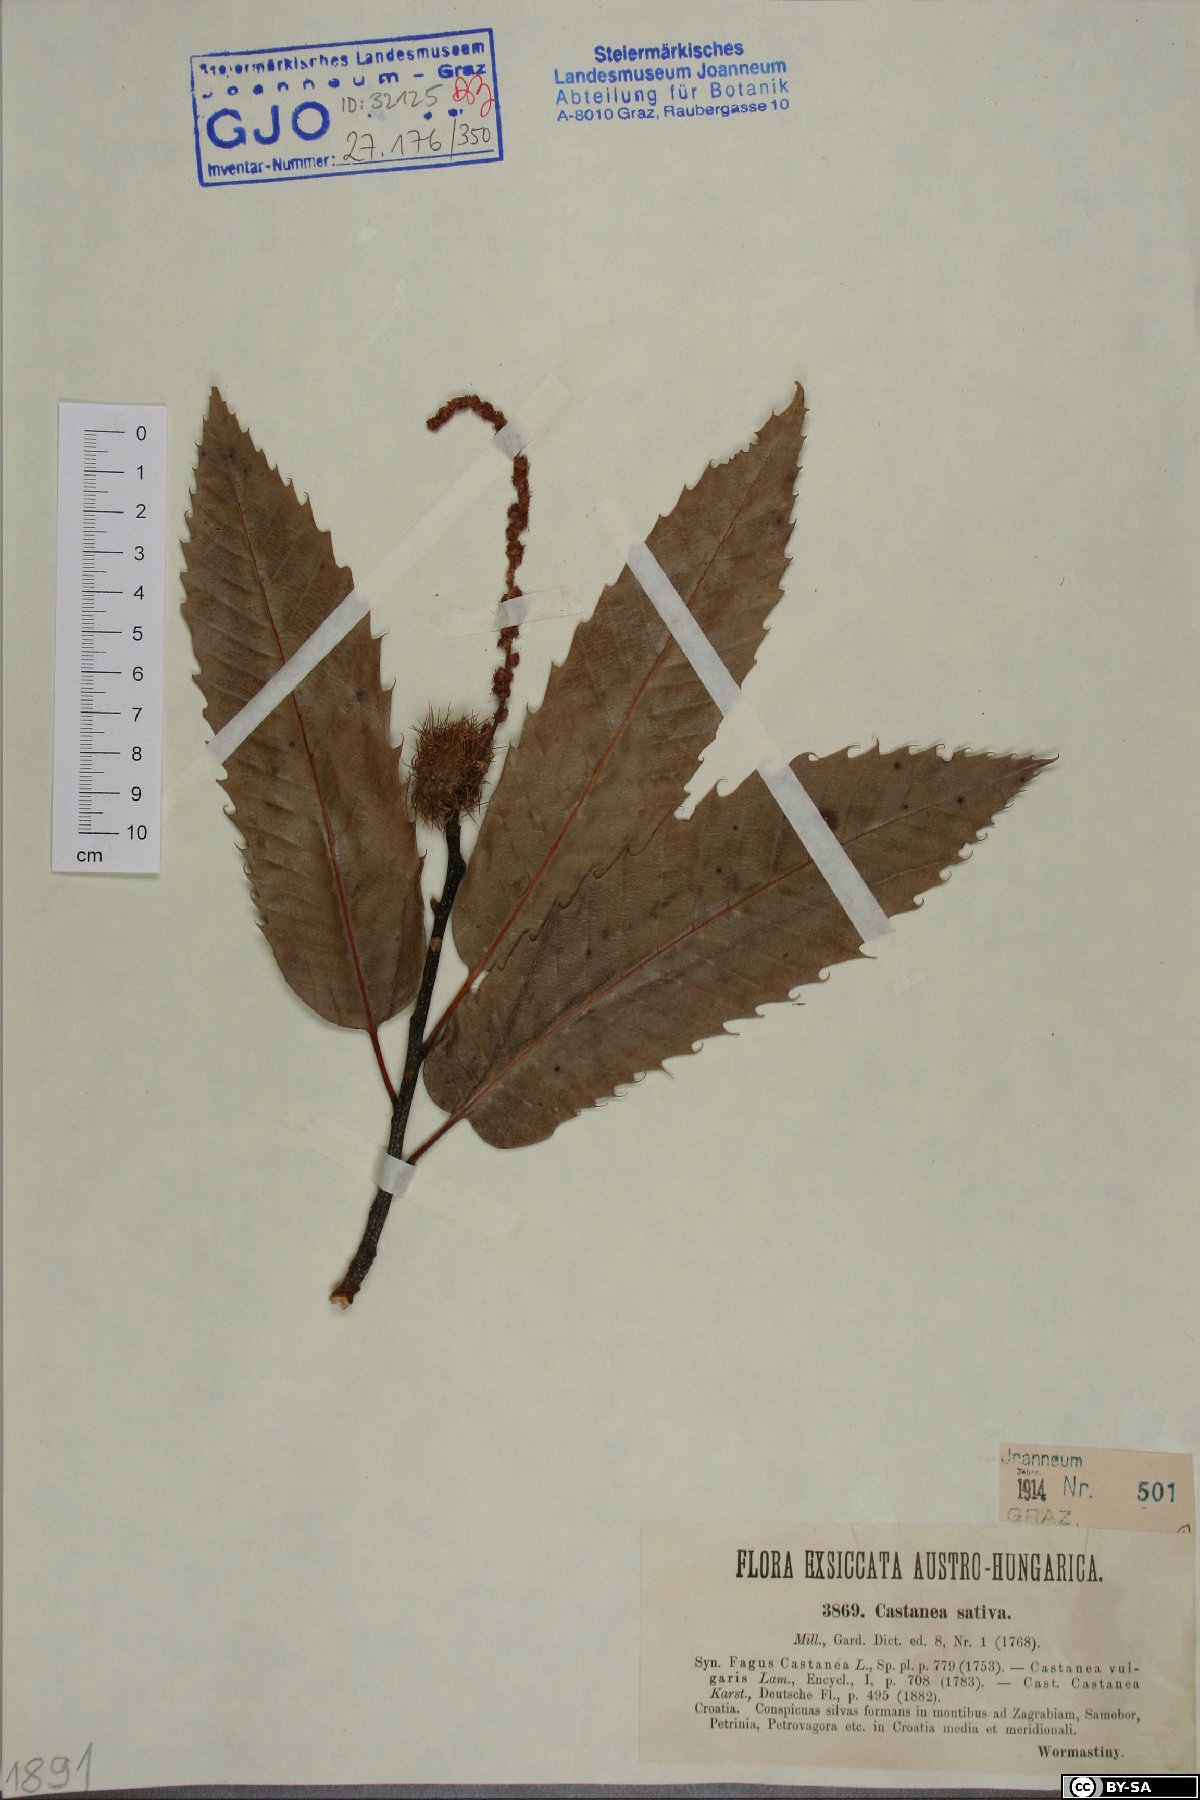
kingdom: Plantae
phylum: Tracheophyta
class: Magnoliopsida
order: Fagales
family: Fagaceae
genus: Castanea
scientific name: Castanea sativa
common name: Sweet chestnut
